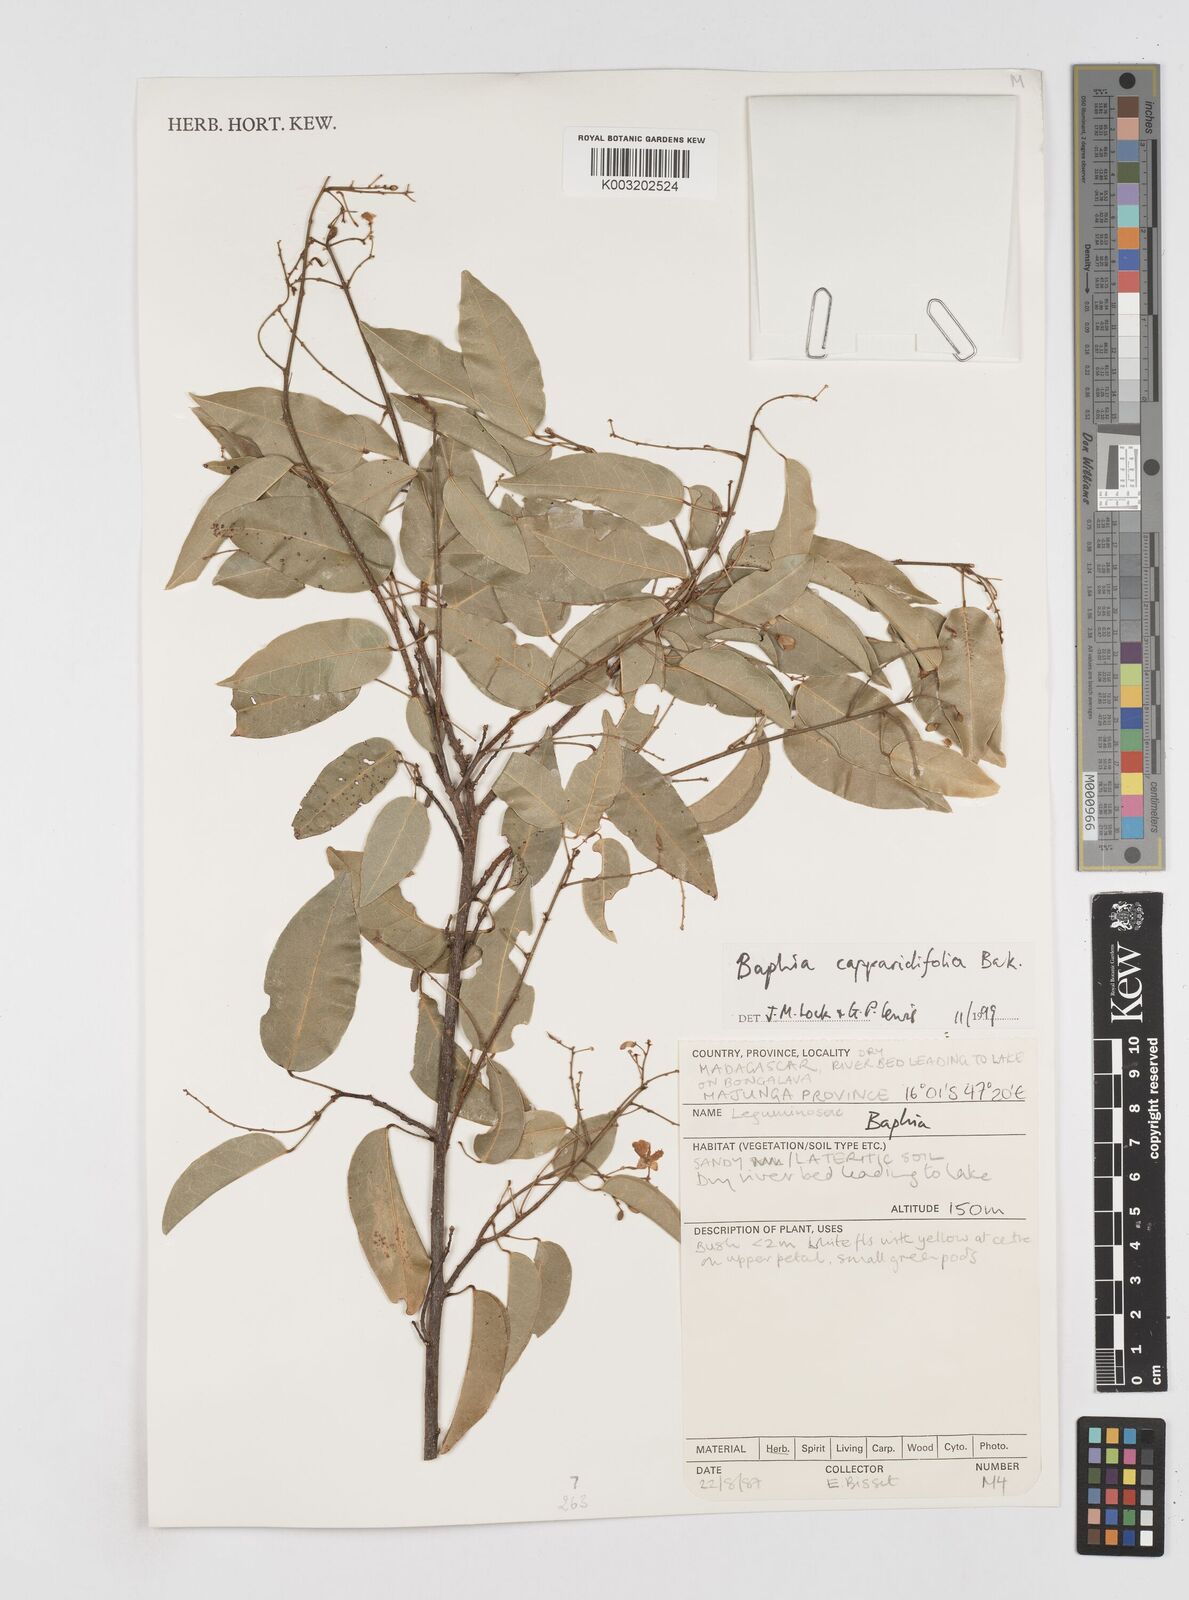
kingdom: Plantae
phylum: Tracheophyta
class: Magnoliopsida
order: Fabales
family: Fabaceae
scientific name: Fabaceae
